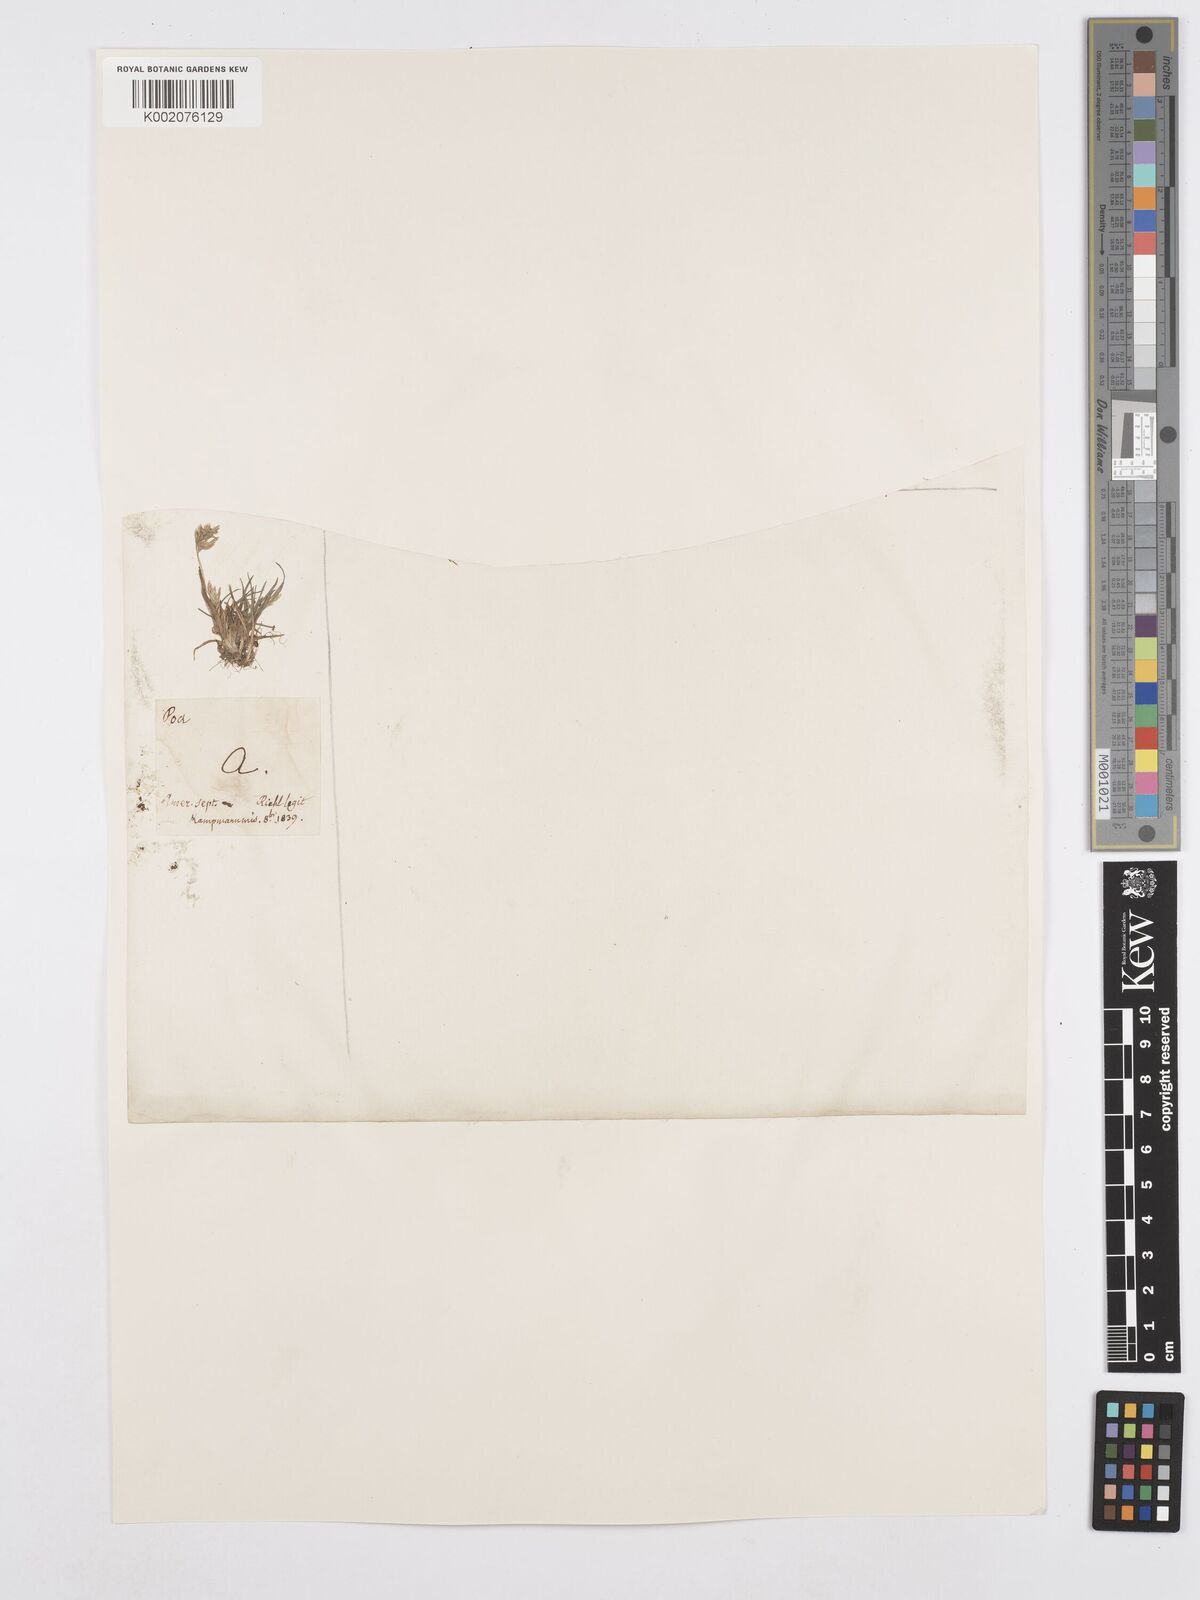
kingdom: Plantae
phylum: Tracheophyta
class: Liliopsida
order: Poales
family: Poaceae
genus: Poa
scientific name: Poa annua
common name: Annual bluegrass
